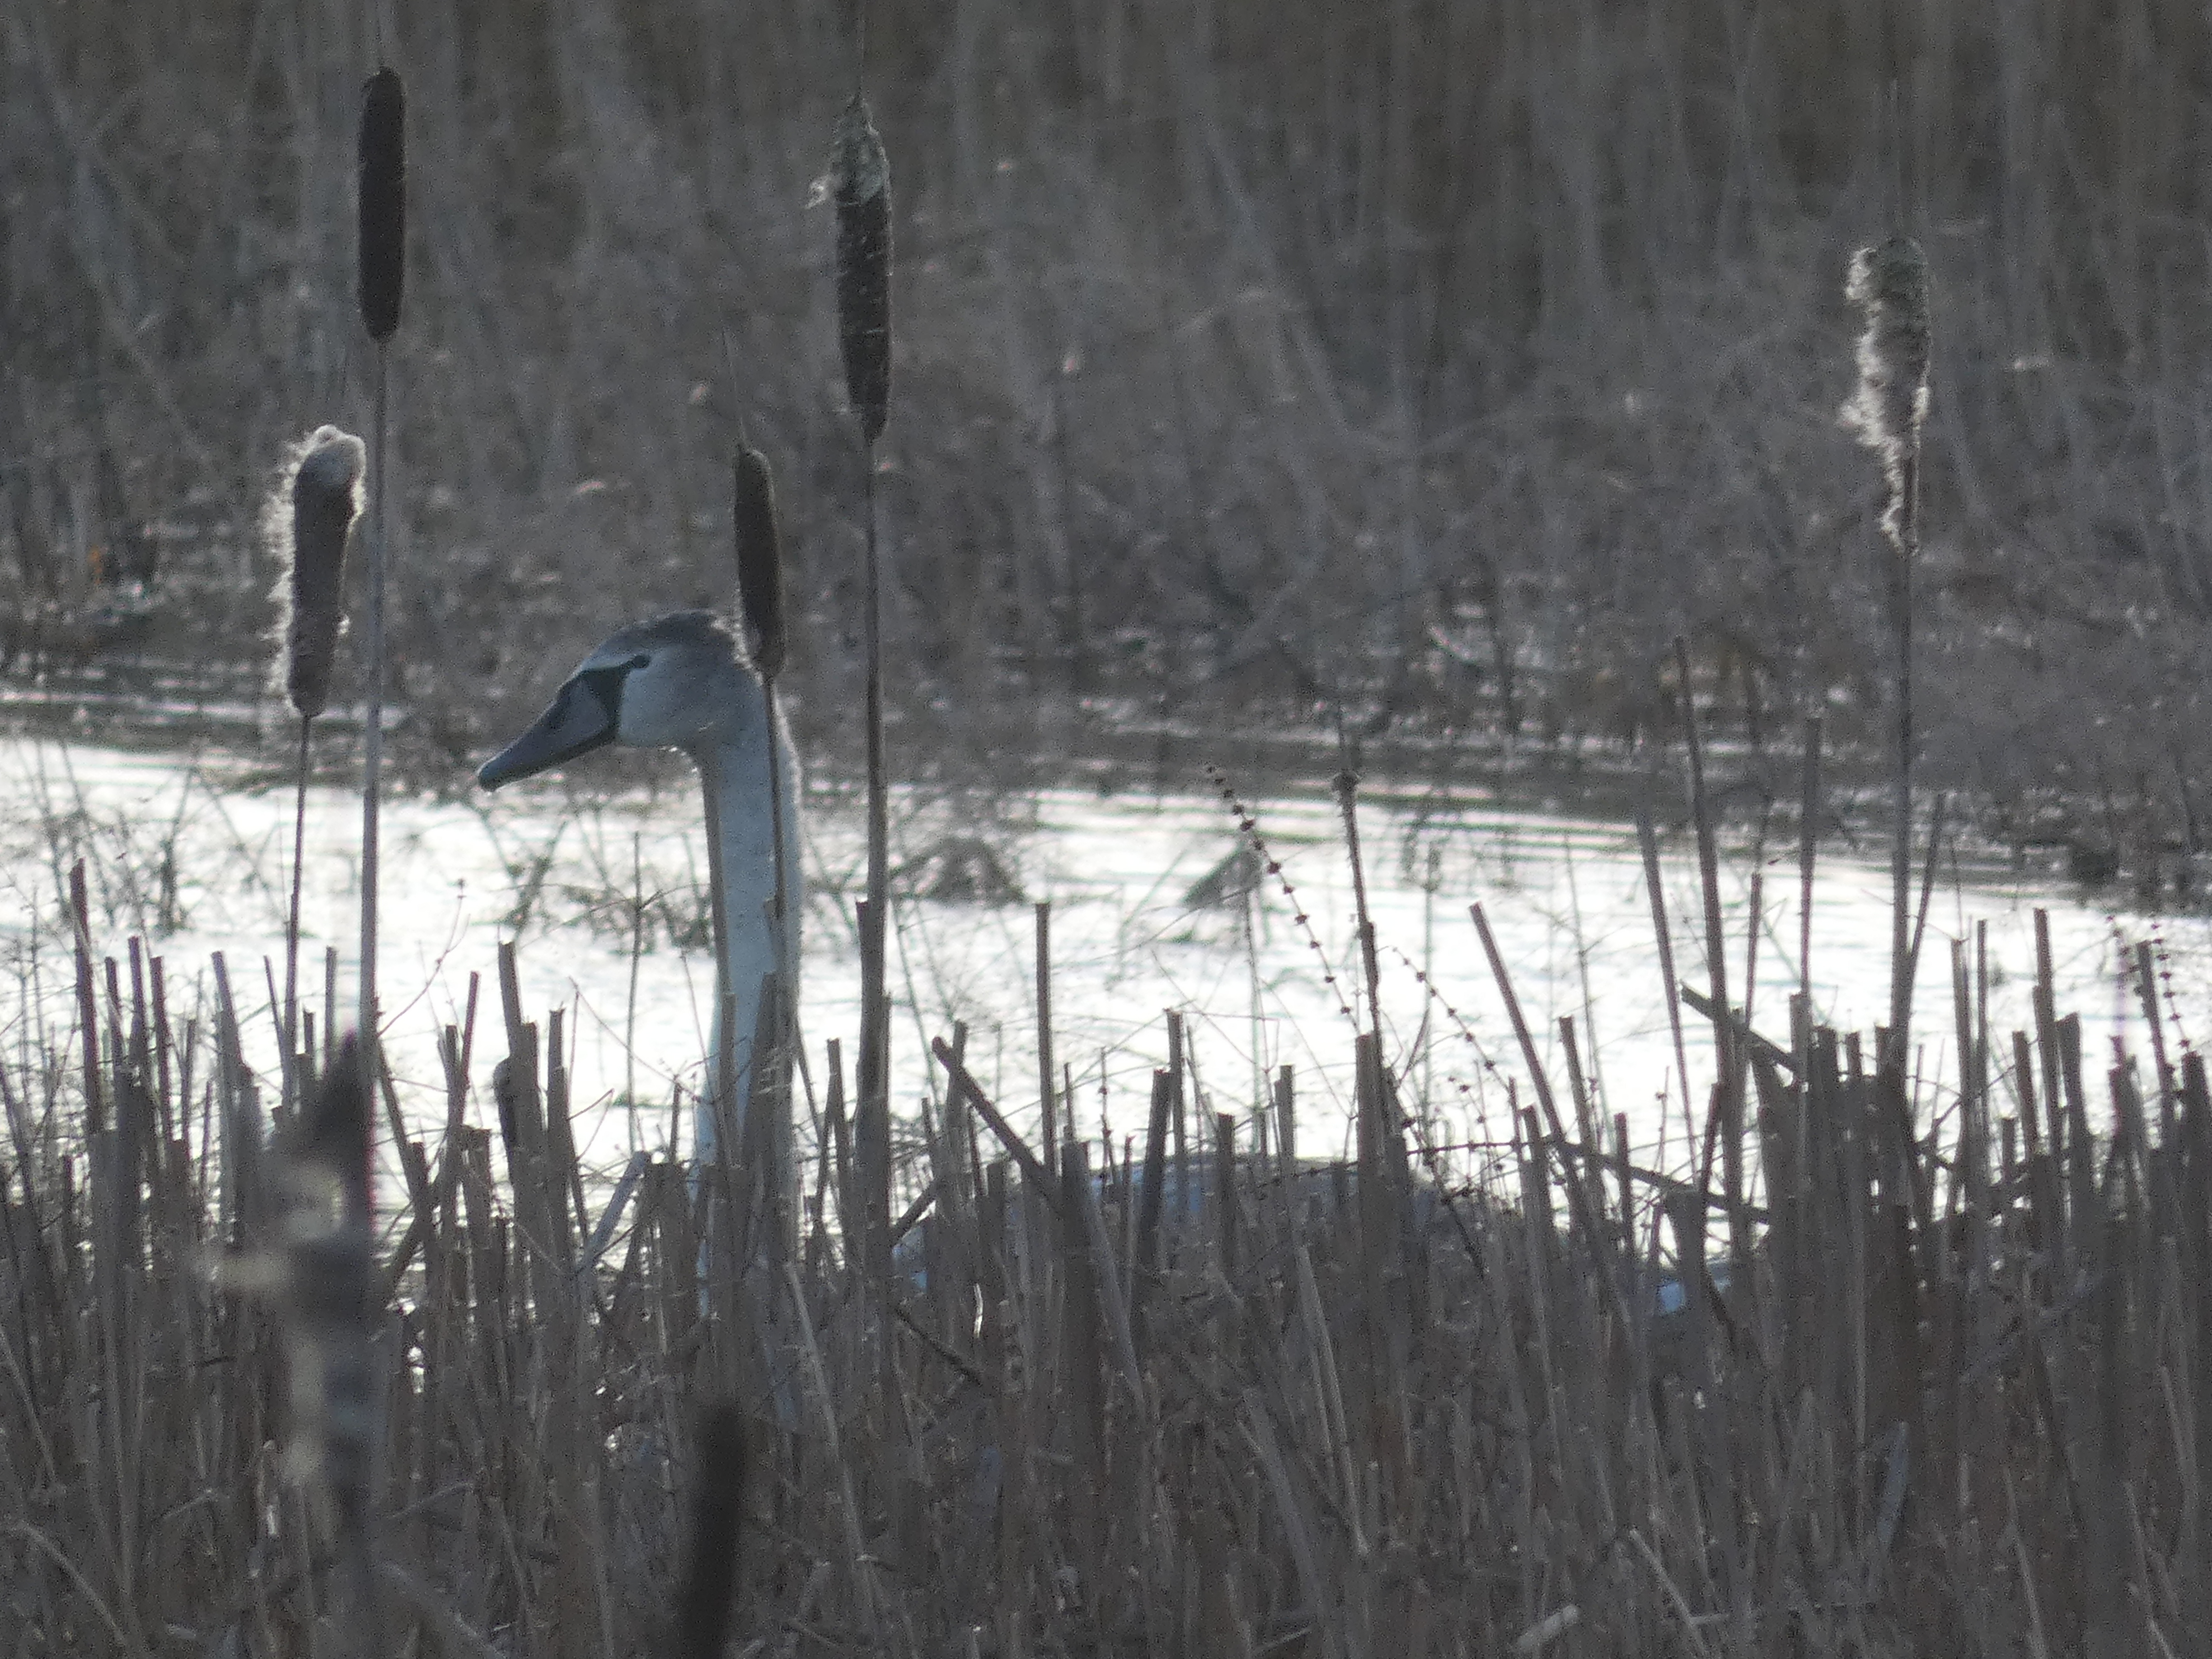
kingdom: Animalia
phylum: Chordata
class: Aves
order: Anseriformes
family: Anatidae
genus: Cygnus
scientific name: Cygnus olor
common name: Knopsvane
